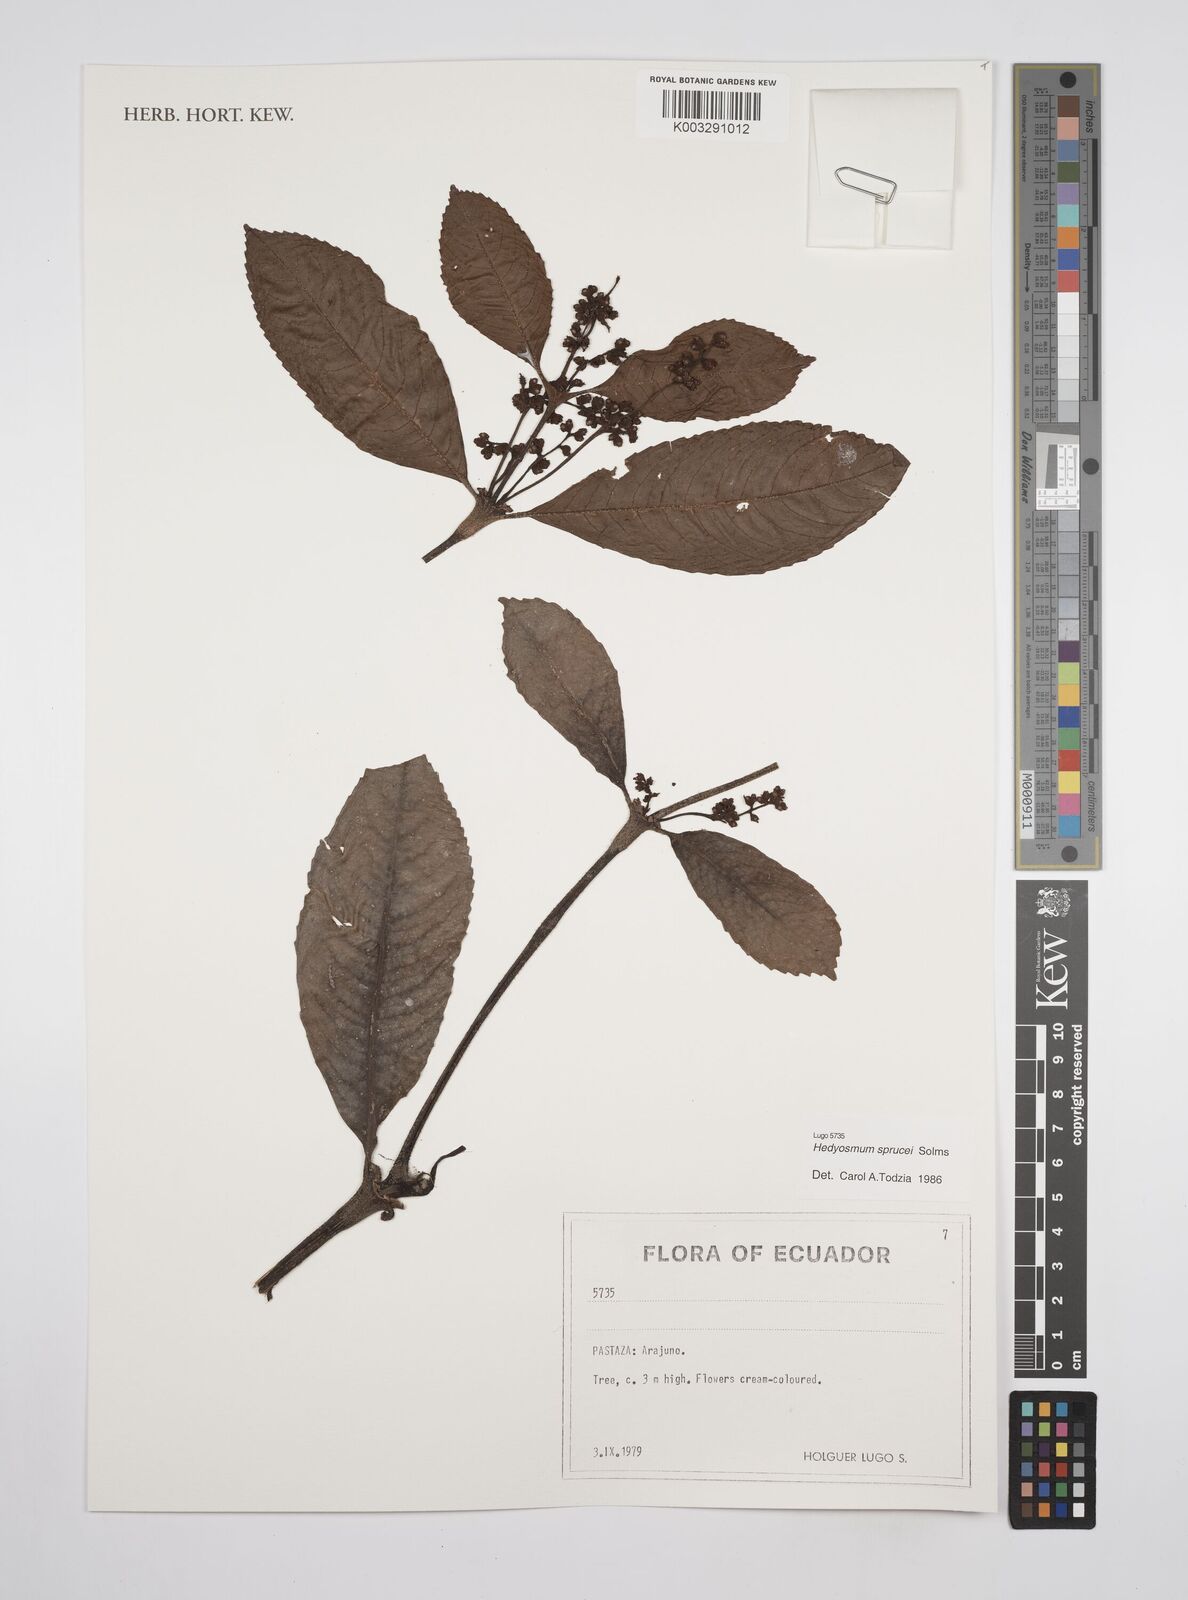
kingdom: Plantae
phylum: Tracheophyta
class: Magnoliopsida
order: Chloranthales
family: Chloranthaceae
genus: Hedyosmum
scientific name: Hedyosmum sprucei
